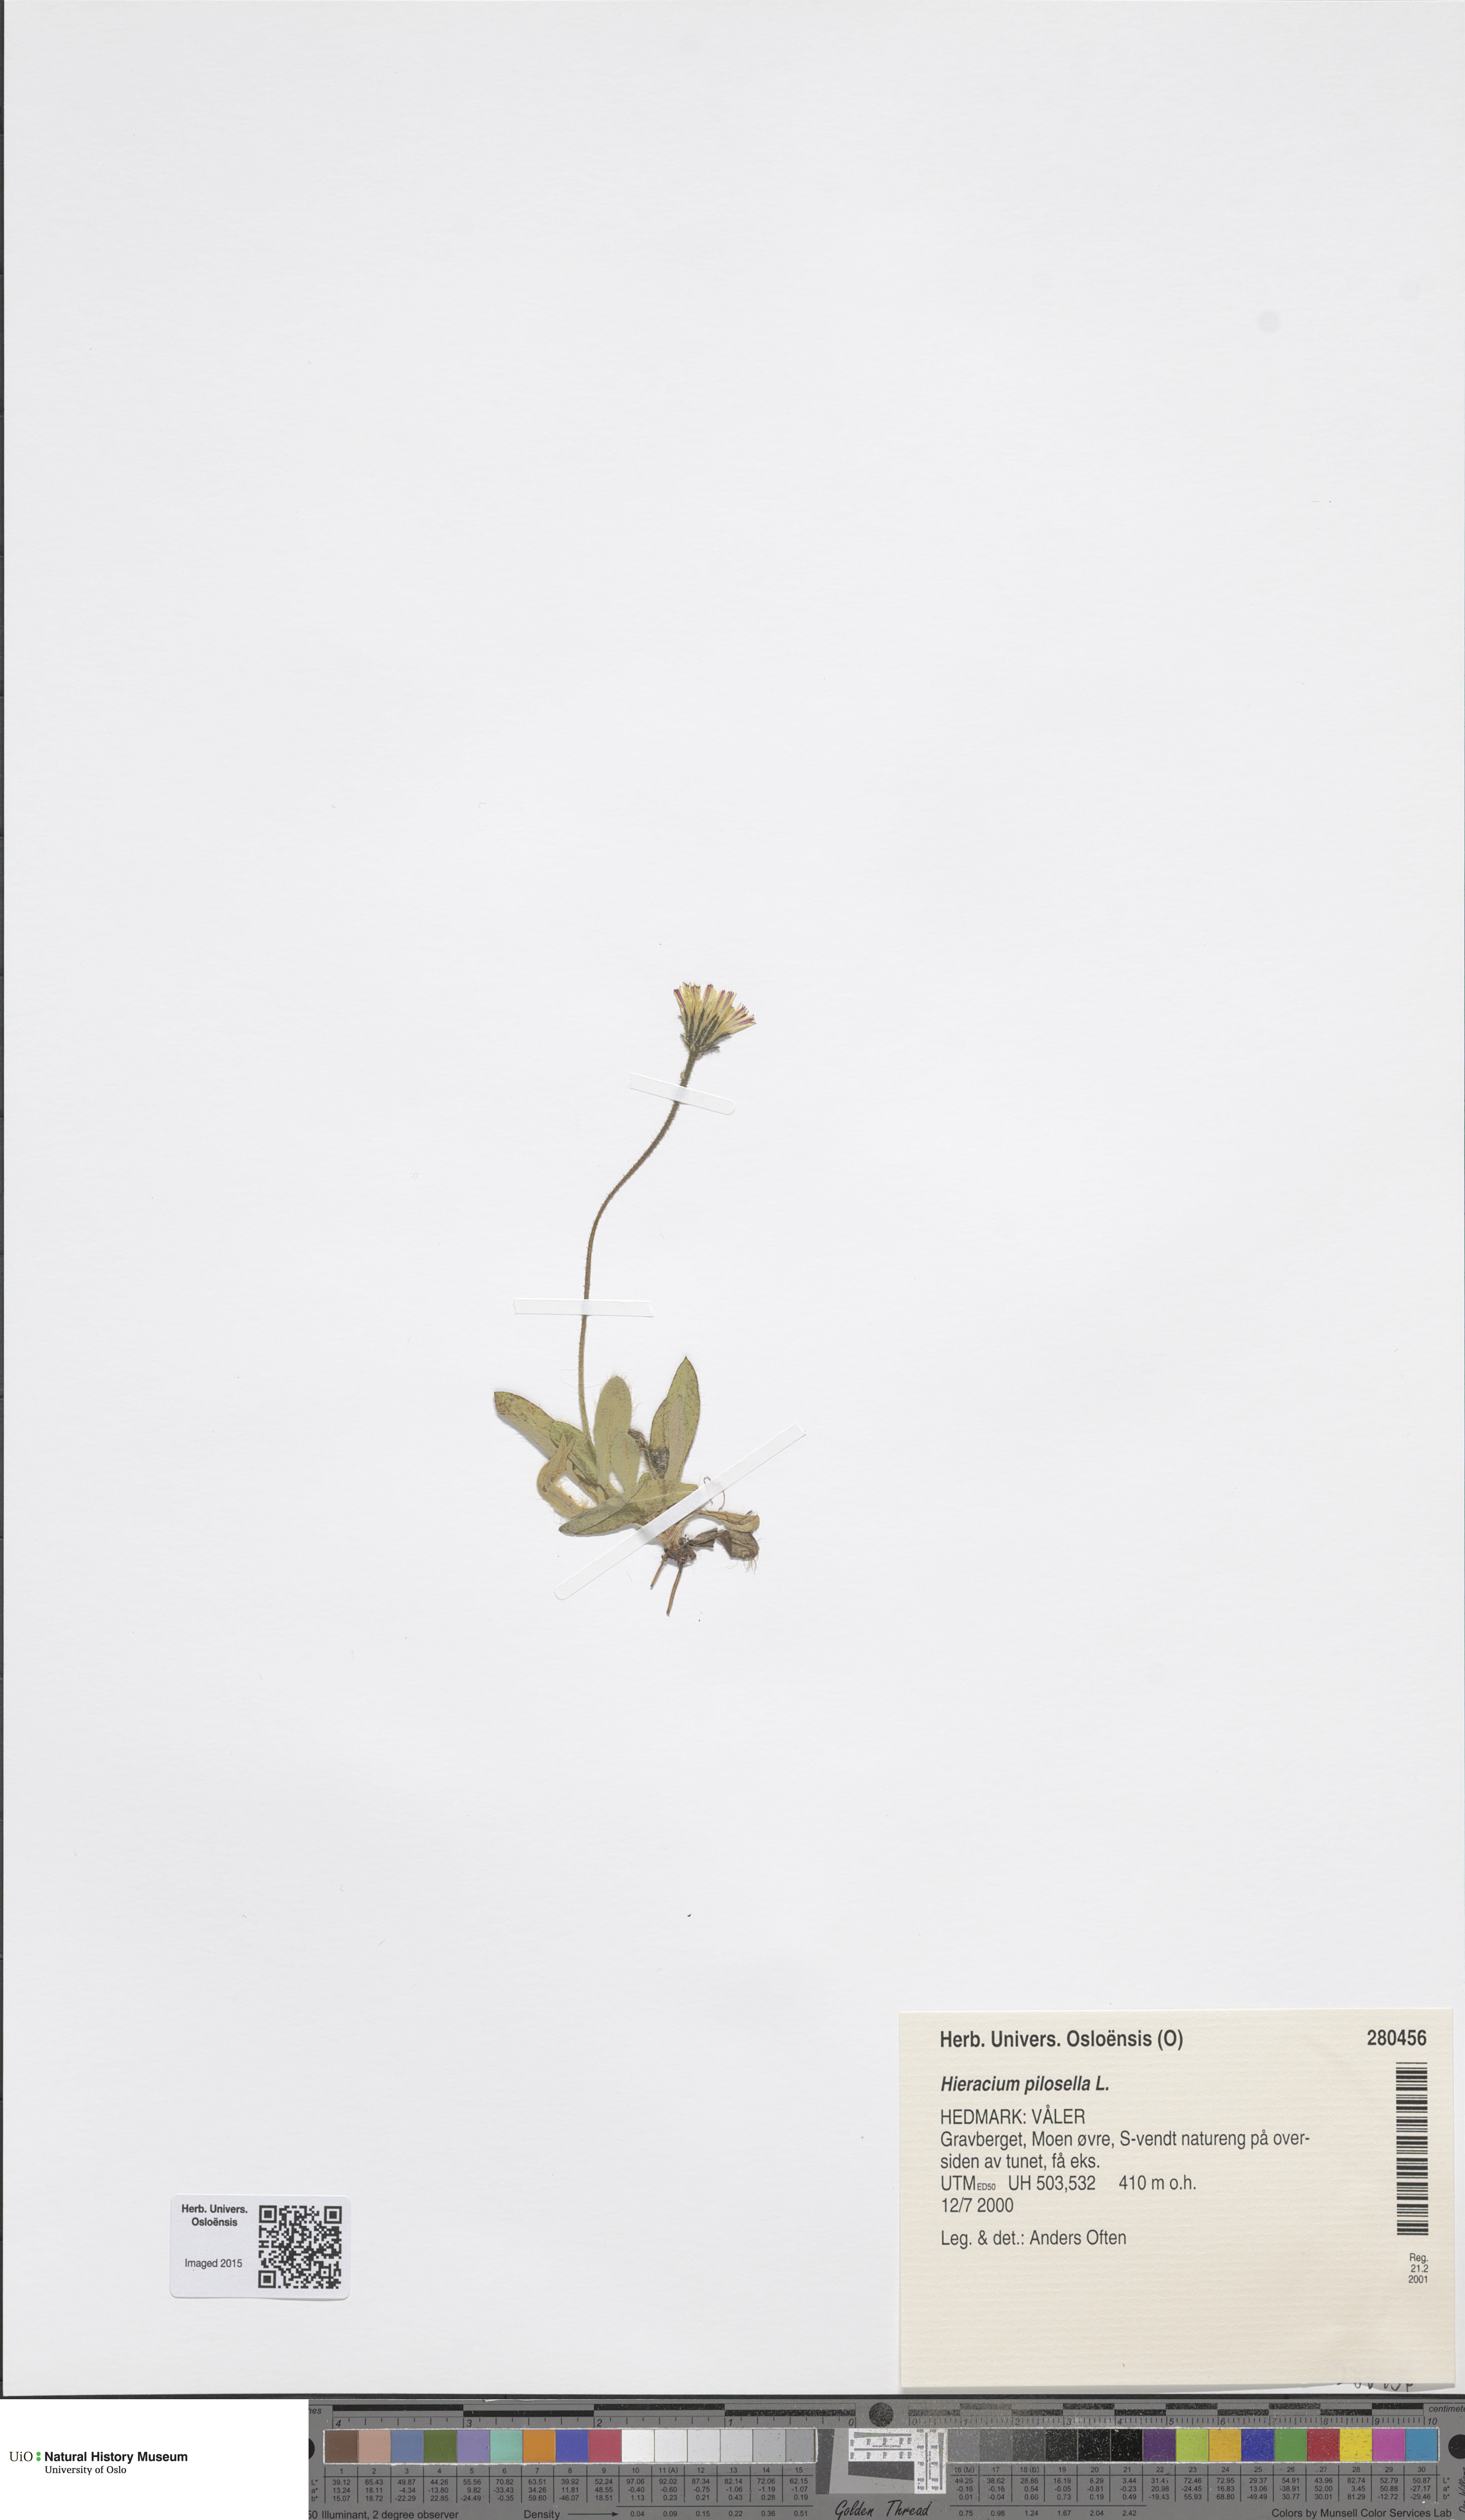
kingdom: Plantae
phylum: Tracheophyta
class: Magnoliopsida
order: Asterales
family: Asteraceae
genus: Pilosella
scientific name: Pilosella officinarum
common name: Mouse-ear hawkweed
